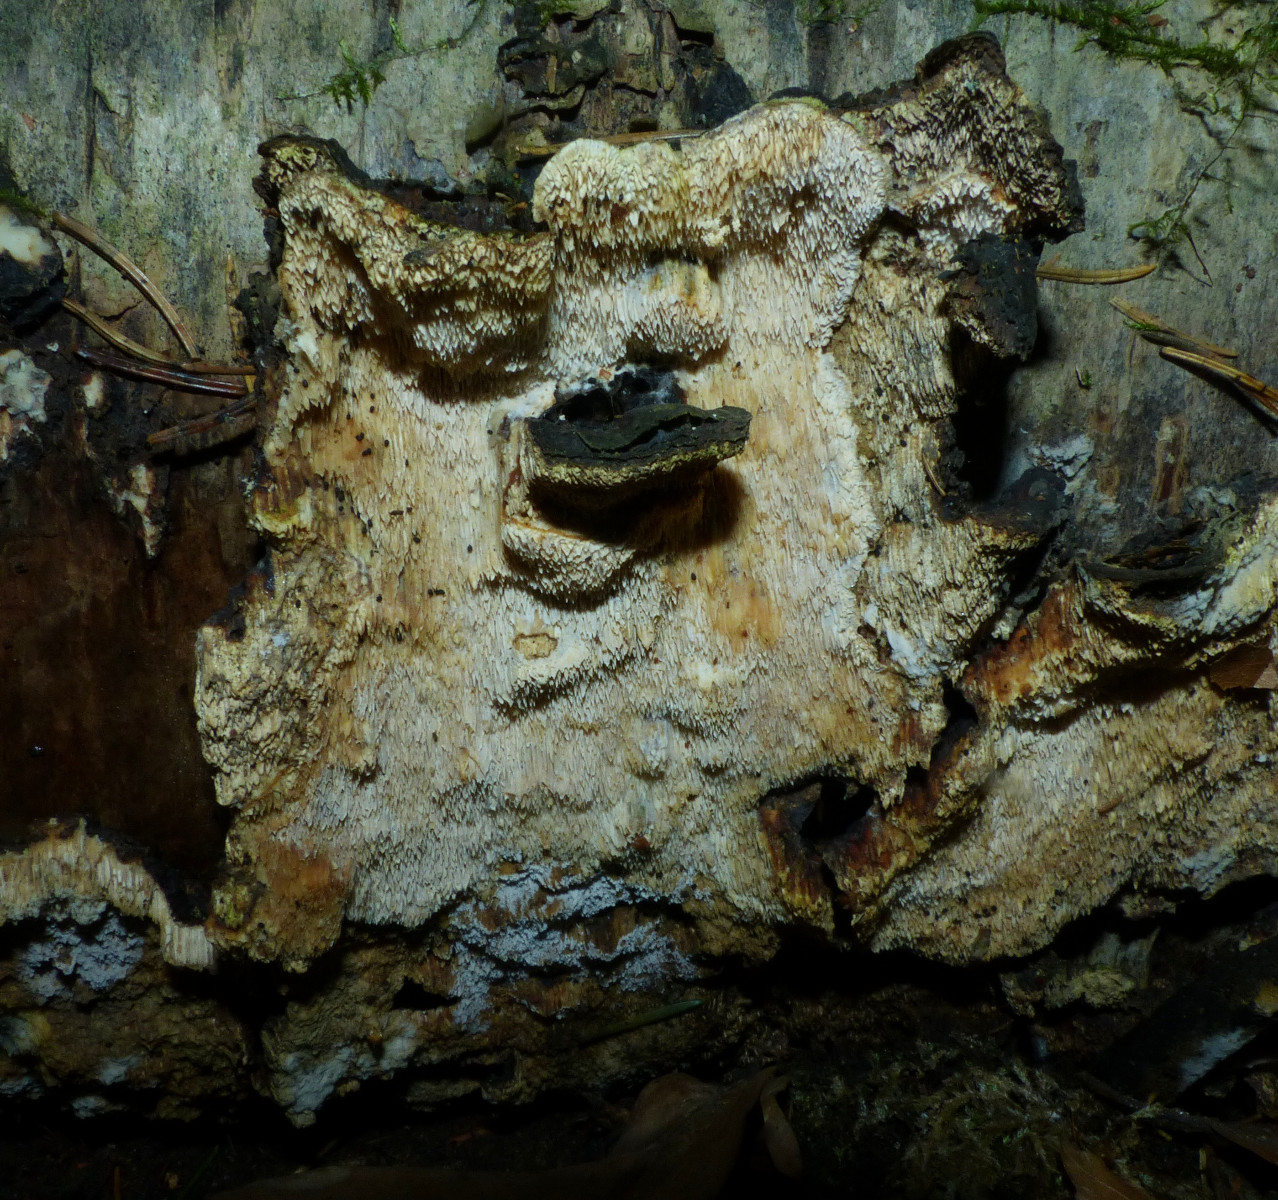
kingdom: Fungi
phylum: Basidiomycota
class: Agaricomycetes
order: Polyporales
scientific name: Polyporales
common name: poresvampordenen
